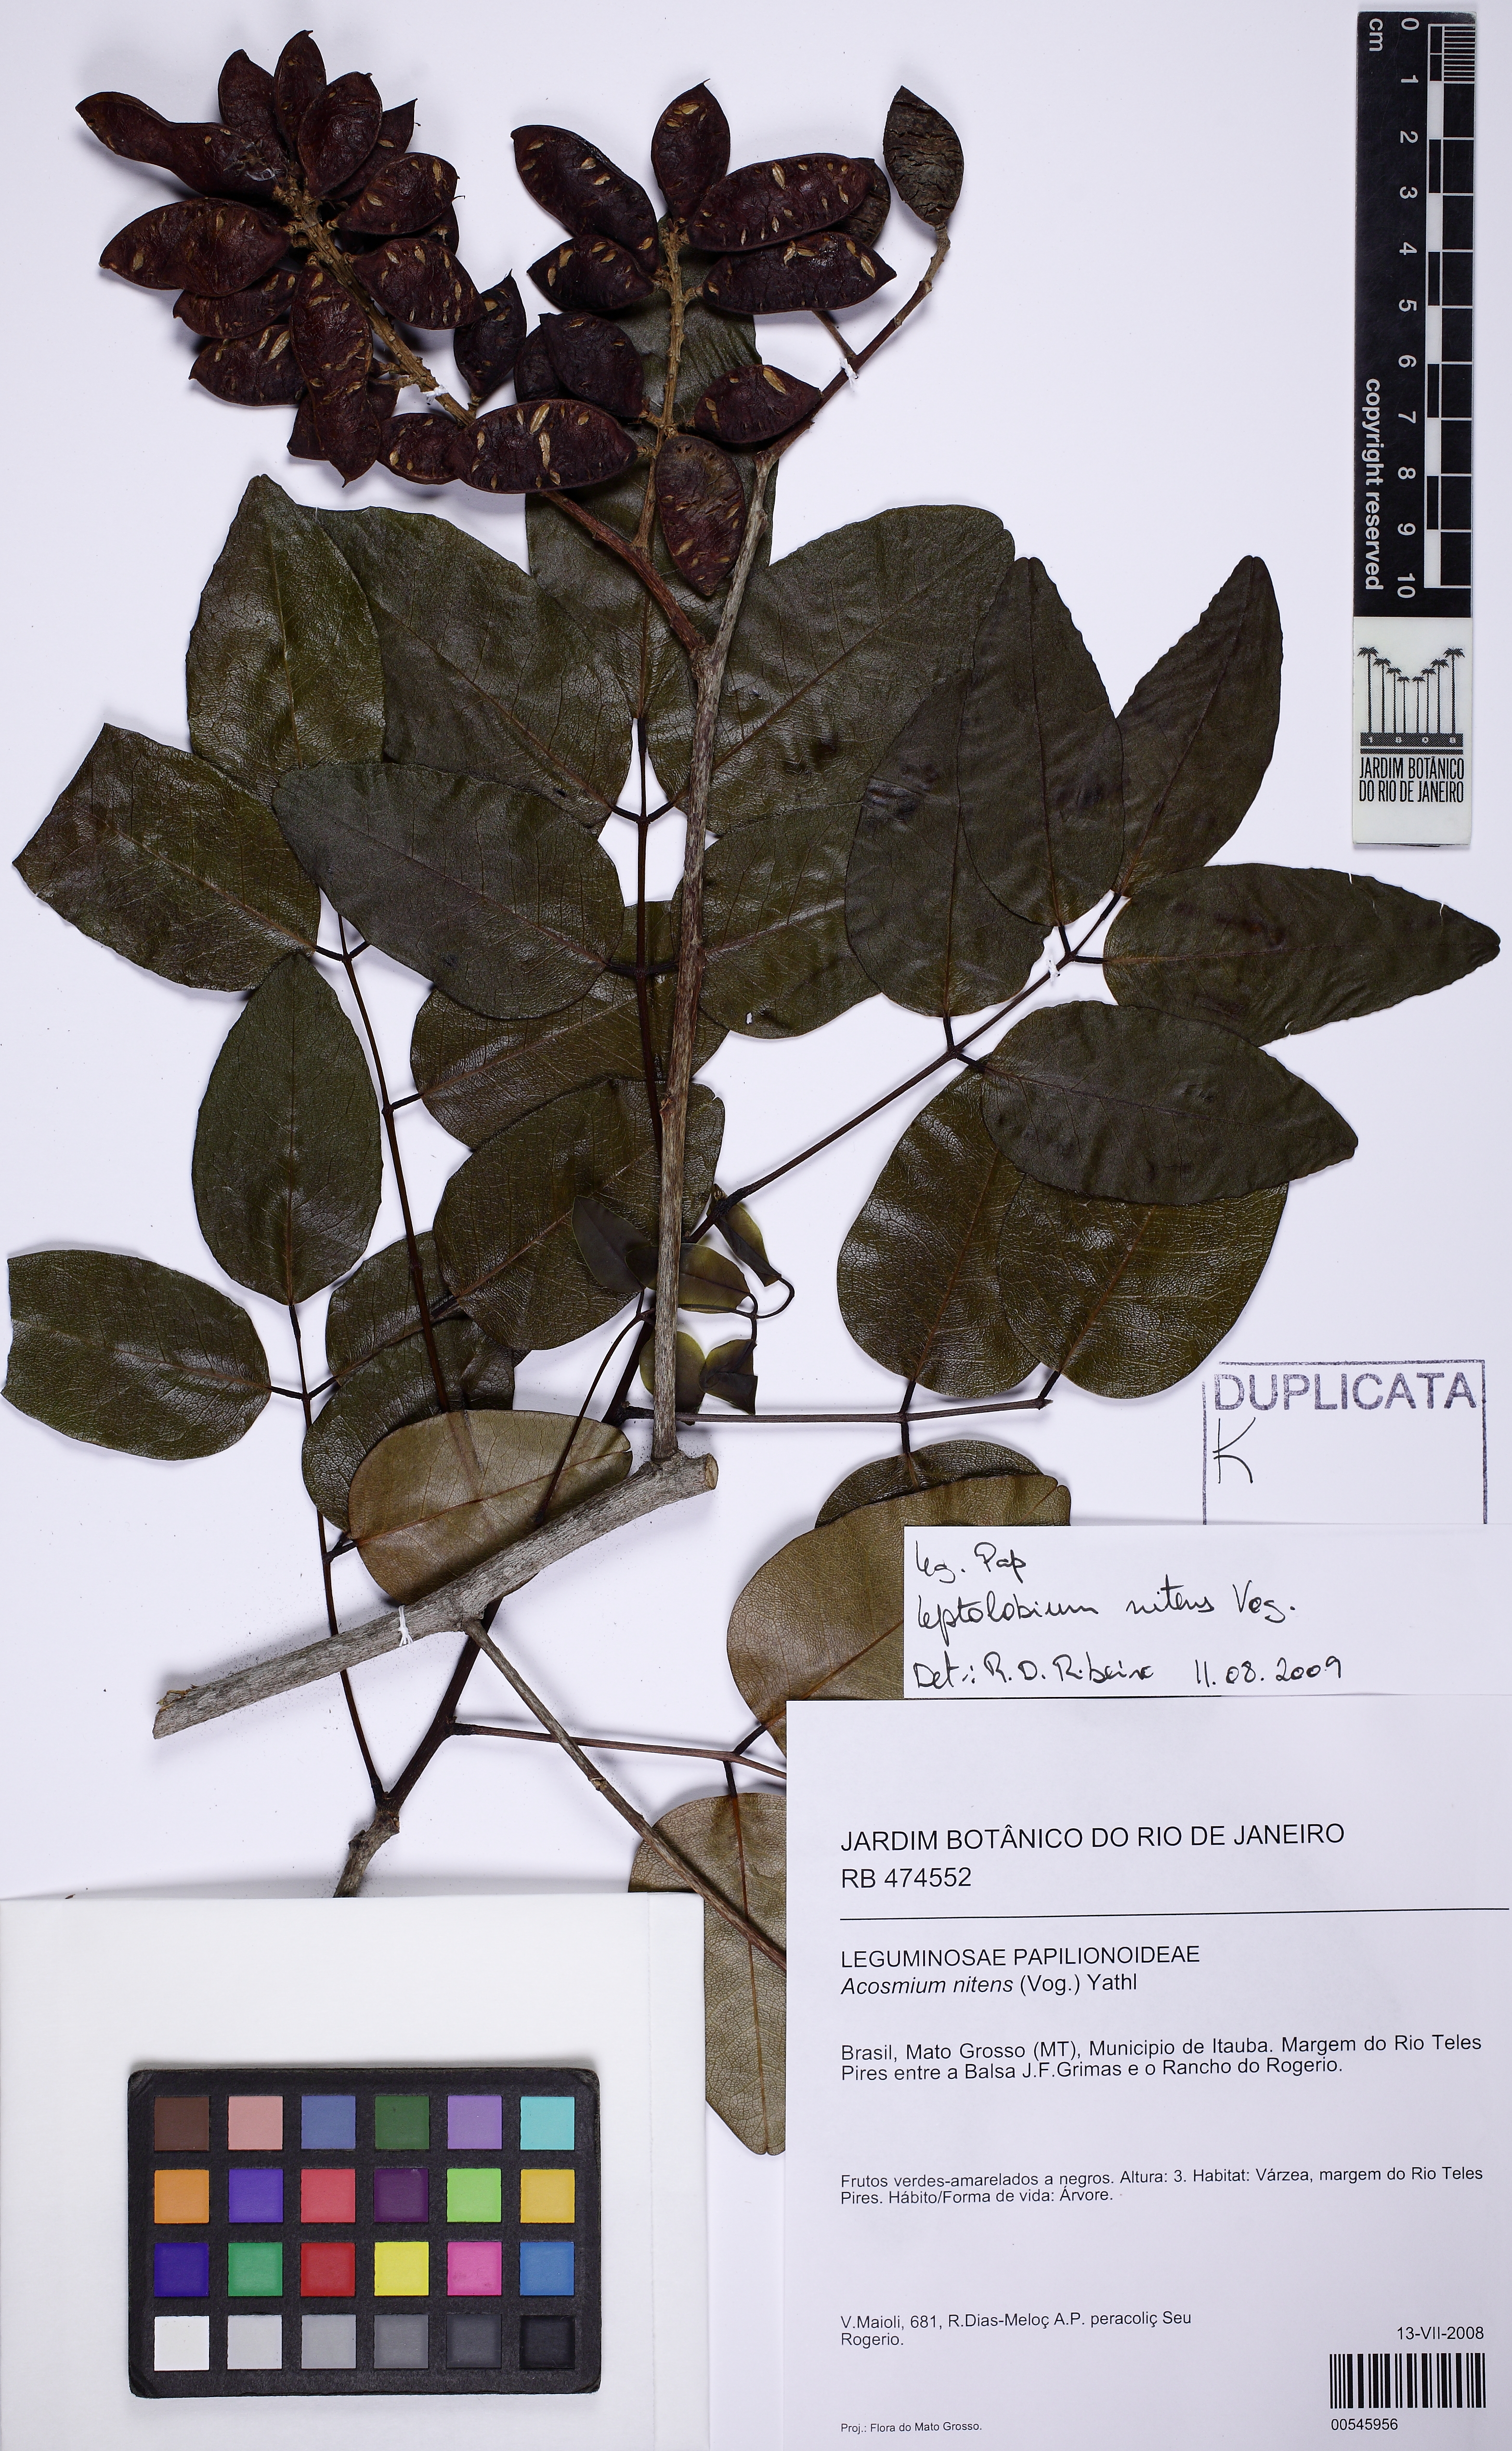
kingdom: Plantae
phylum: Tracheophyta
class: Magnoliopsida
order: Fabales
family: Fabaceae
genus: Leptolobium
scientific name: Leptolobium nitens
